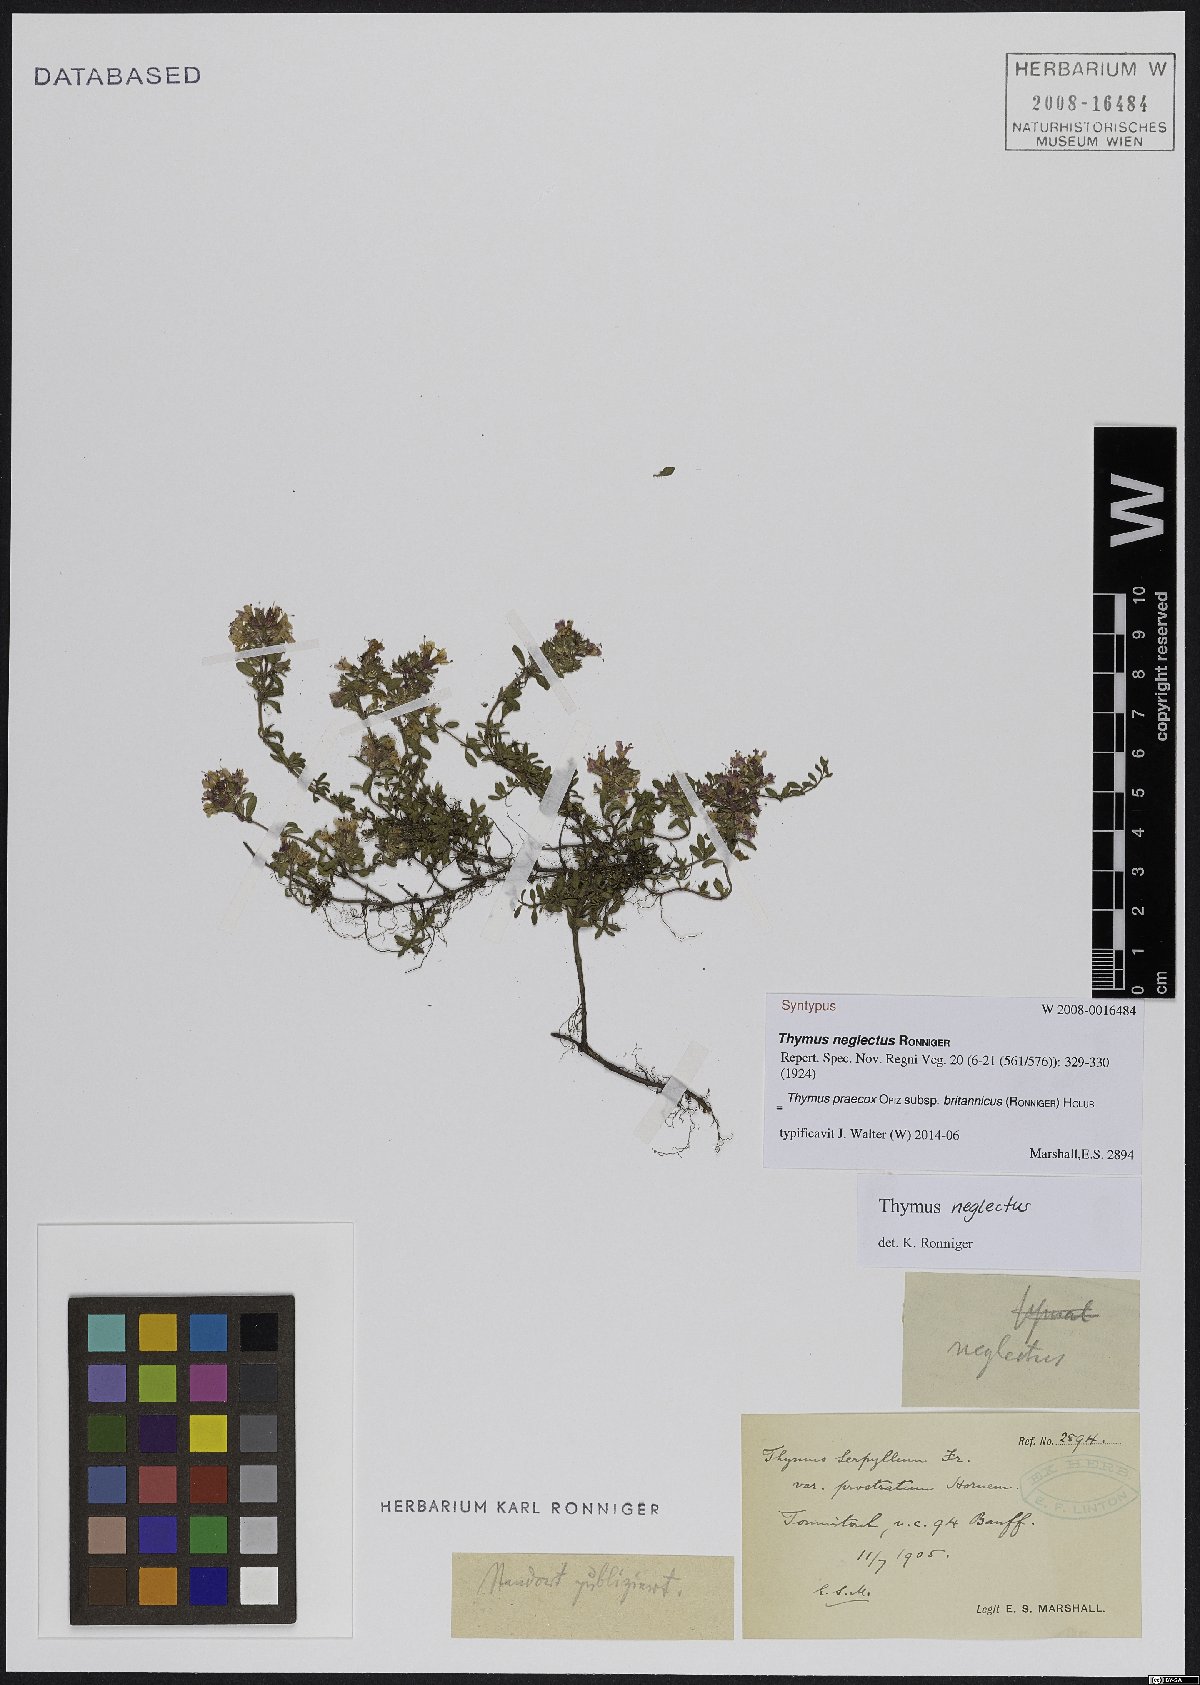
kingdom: Plantae
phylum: Tracheophyta
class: Magnoliopsida
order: Lamiales
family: Lamiaceae
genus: Thymus
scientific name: Thymus praecox
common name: Wild thyme
